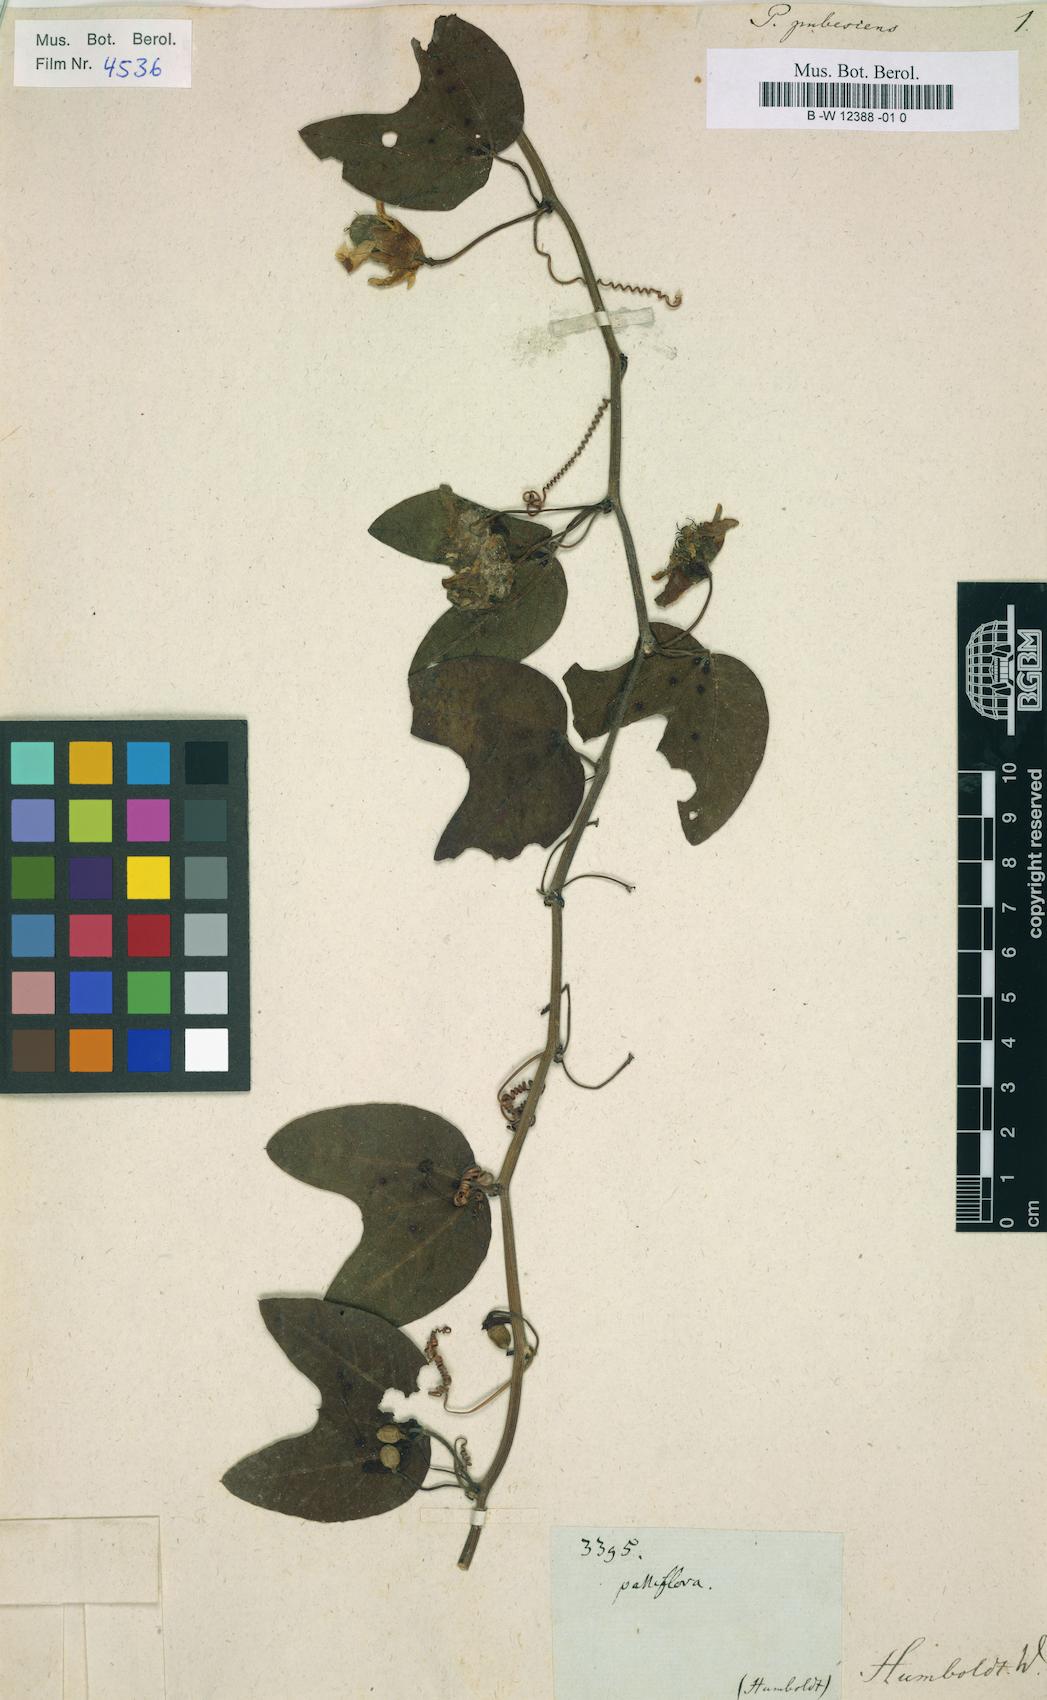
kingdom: Plantae
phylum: Tracheophyta
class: Magnoliopsida
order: Malpighiales
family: Passifloraceae
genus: Passiflora
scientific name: Passiflora capsularis
